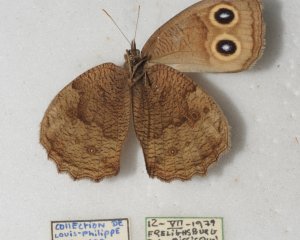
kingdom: Animalia
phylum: Arthropoda
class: Insecta
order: Lepidoptera
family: Nymphalidae
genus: Cercyonis
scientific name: Cercyonis pegala
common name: Common Wood-Nymph
